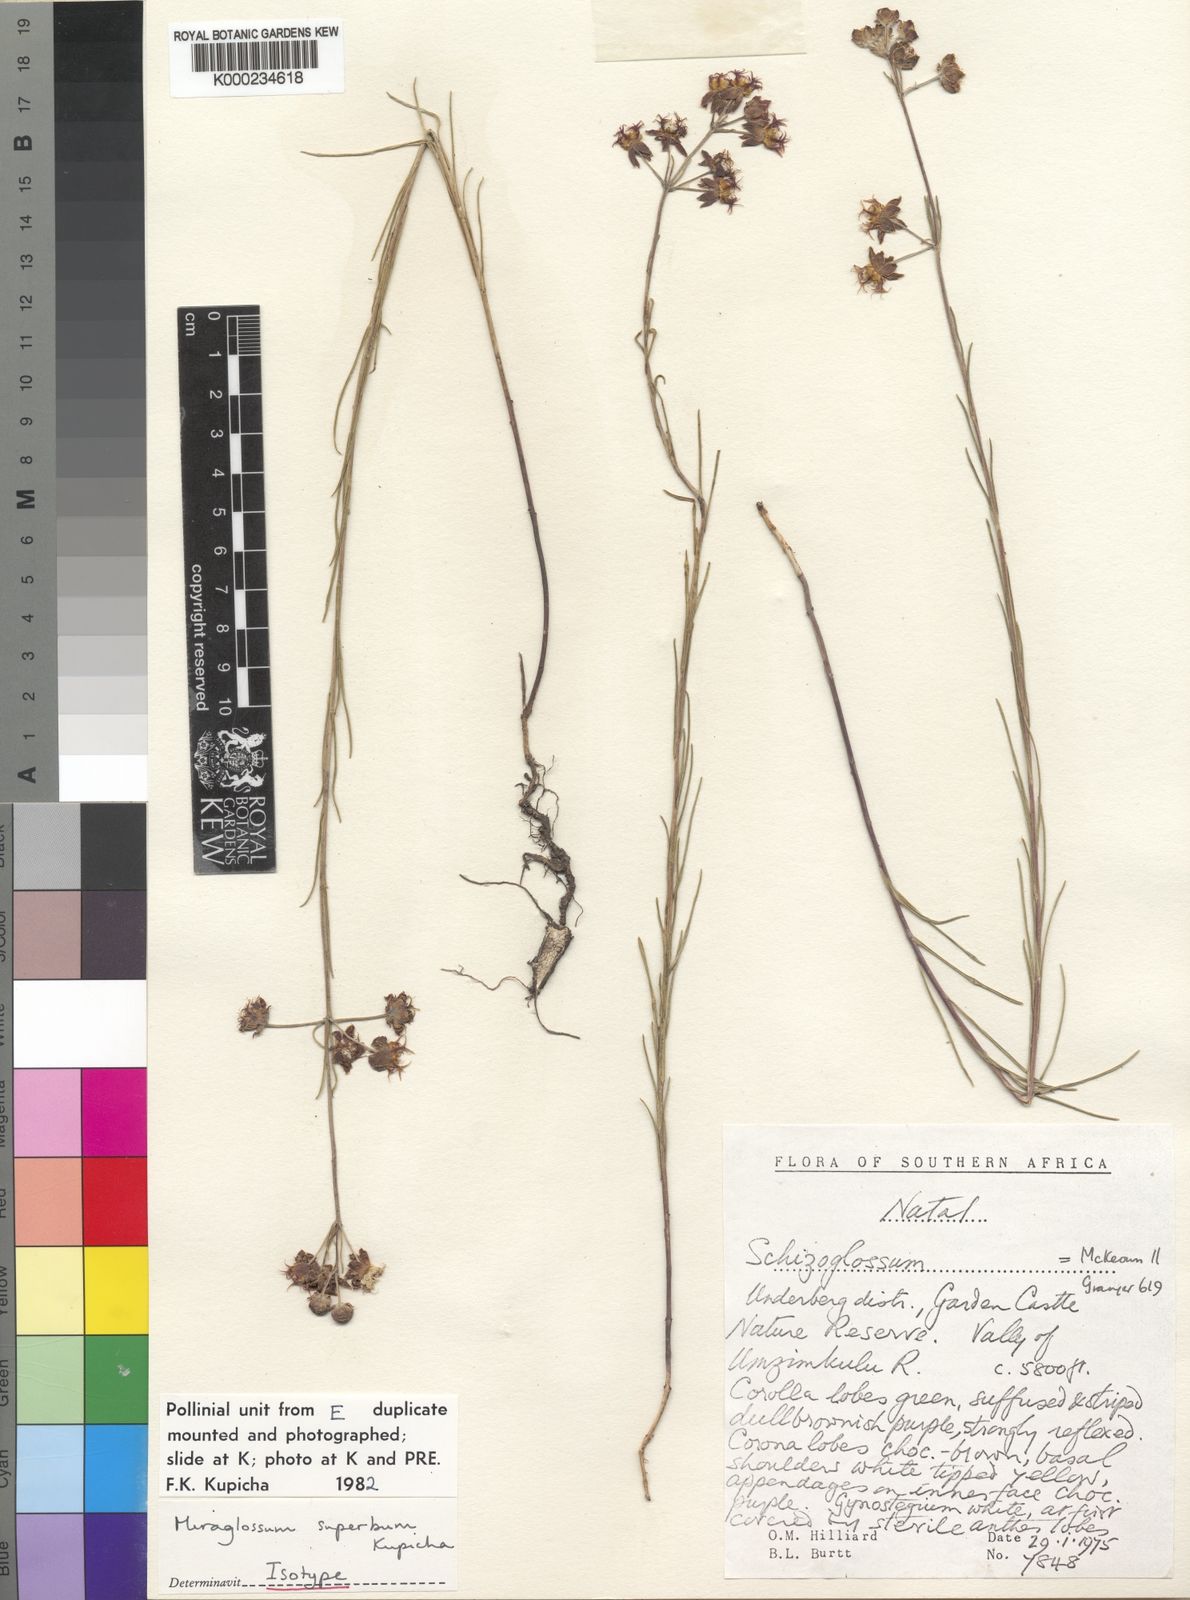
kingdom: Plantae
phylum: Tracheophyta
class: Magnoliopsida
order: Gentianales
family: Apocynaceae
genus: Miraglossum
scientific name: Miraglossum superbum
